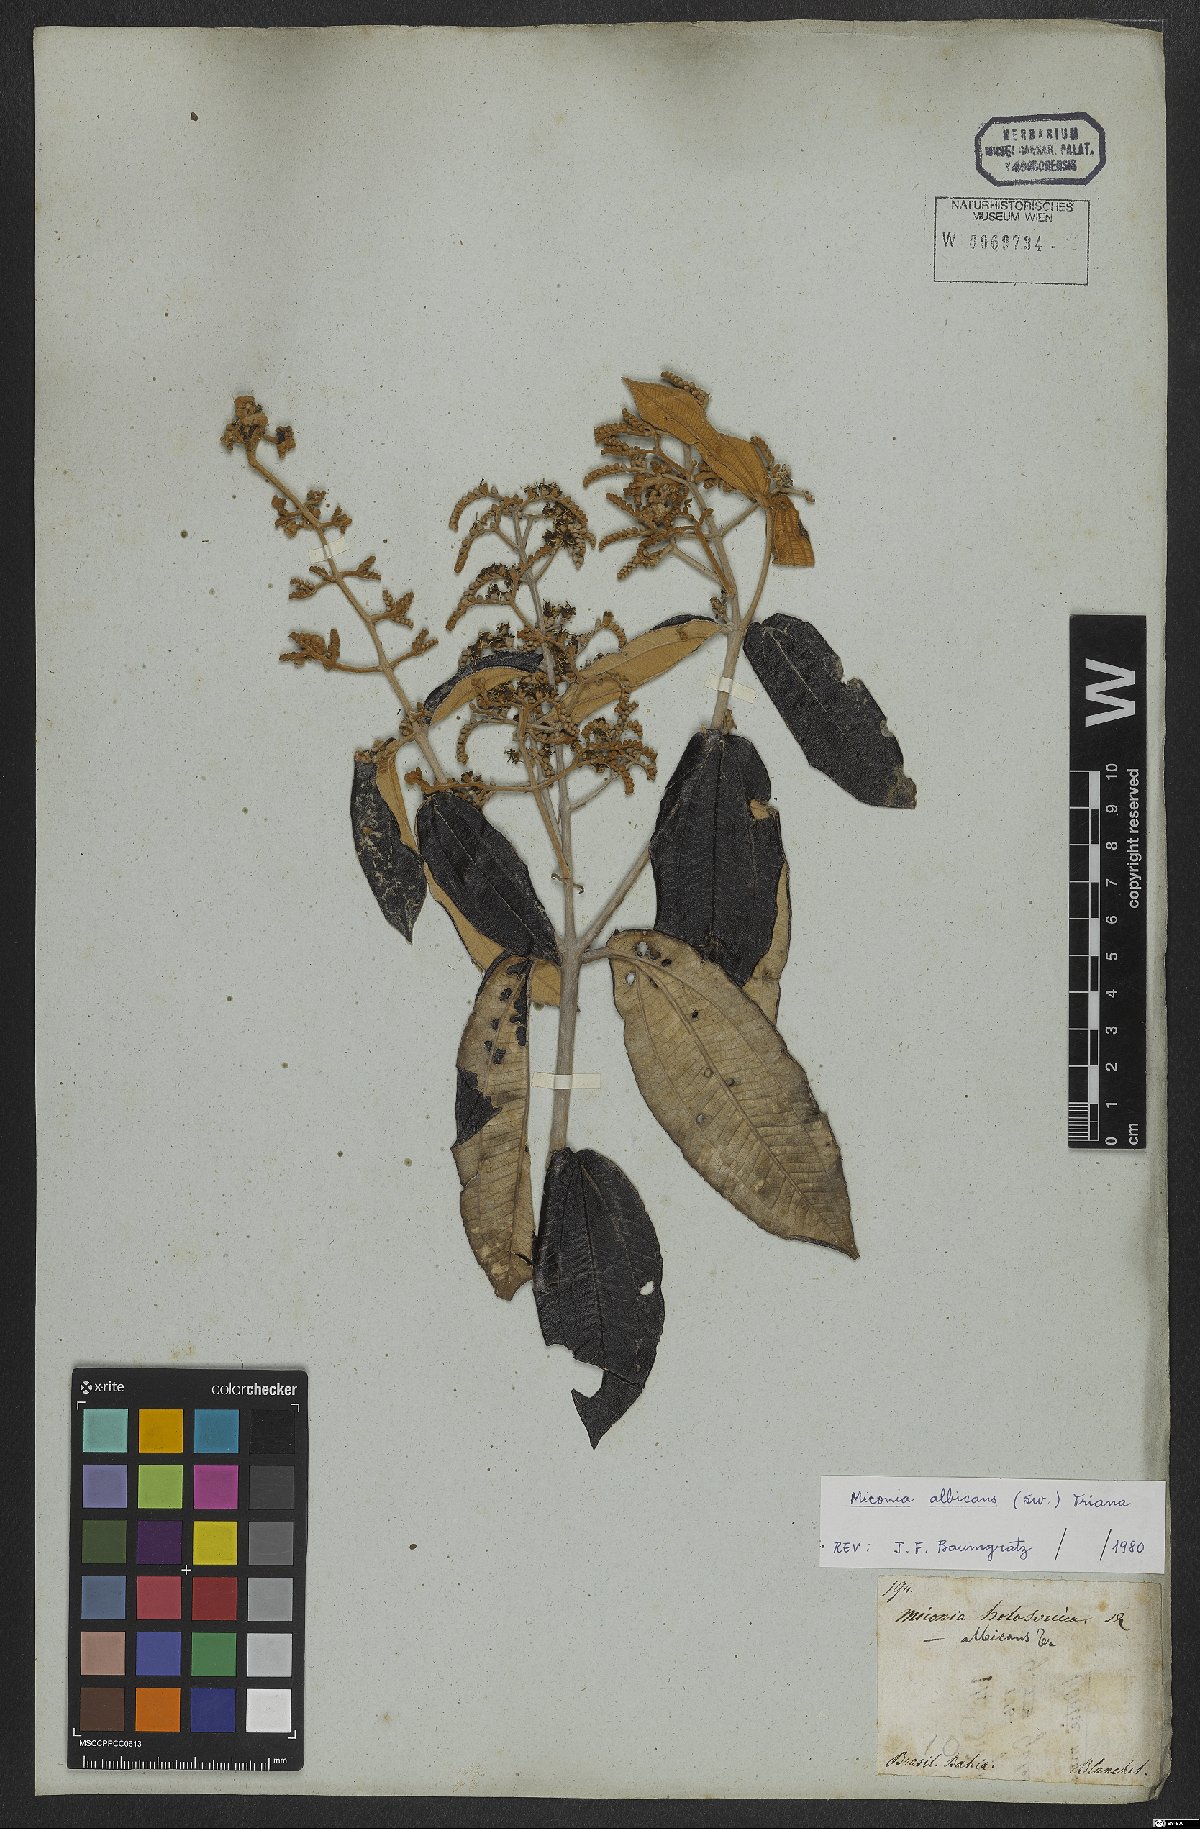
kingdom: Plantae
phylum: Tracheophyta
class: Magnoliopsida
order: Myrtales
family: Melastomataceae
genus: Miconia
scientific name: Miconia albicans
